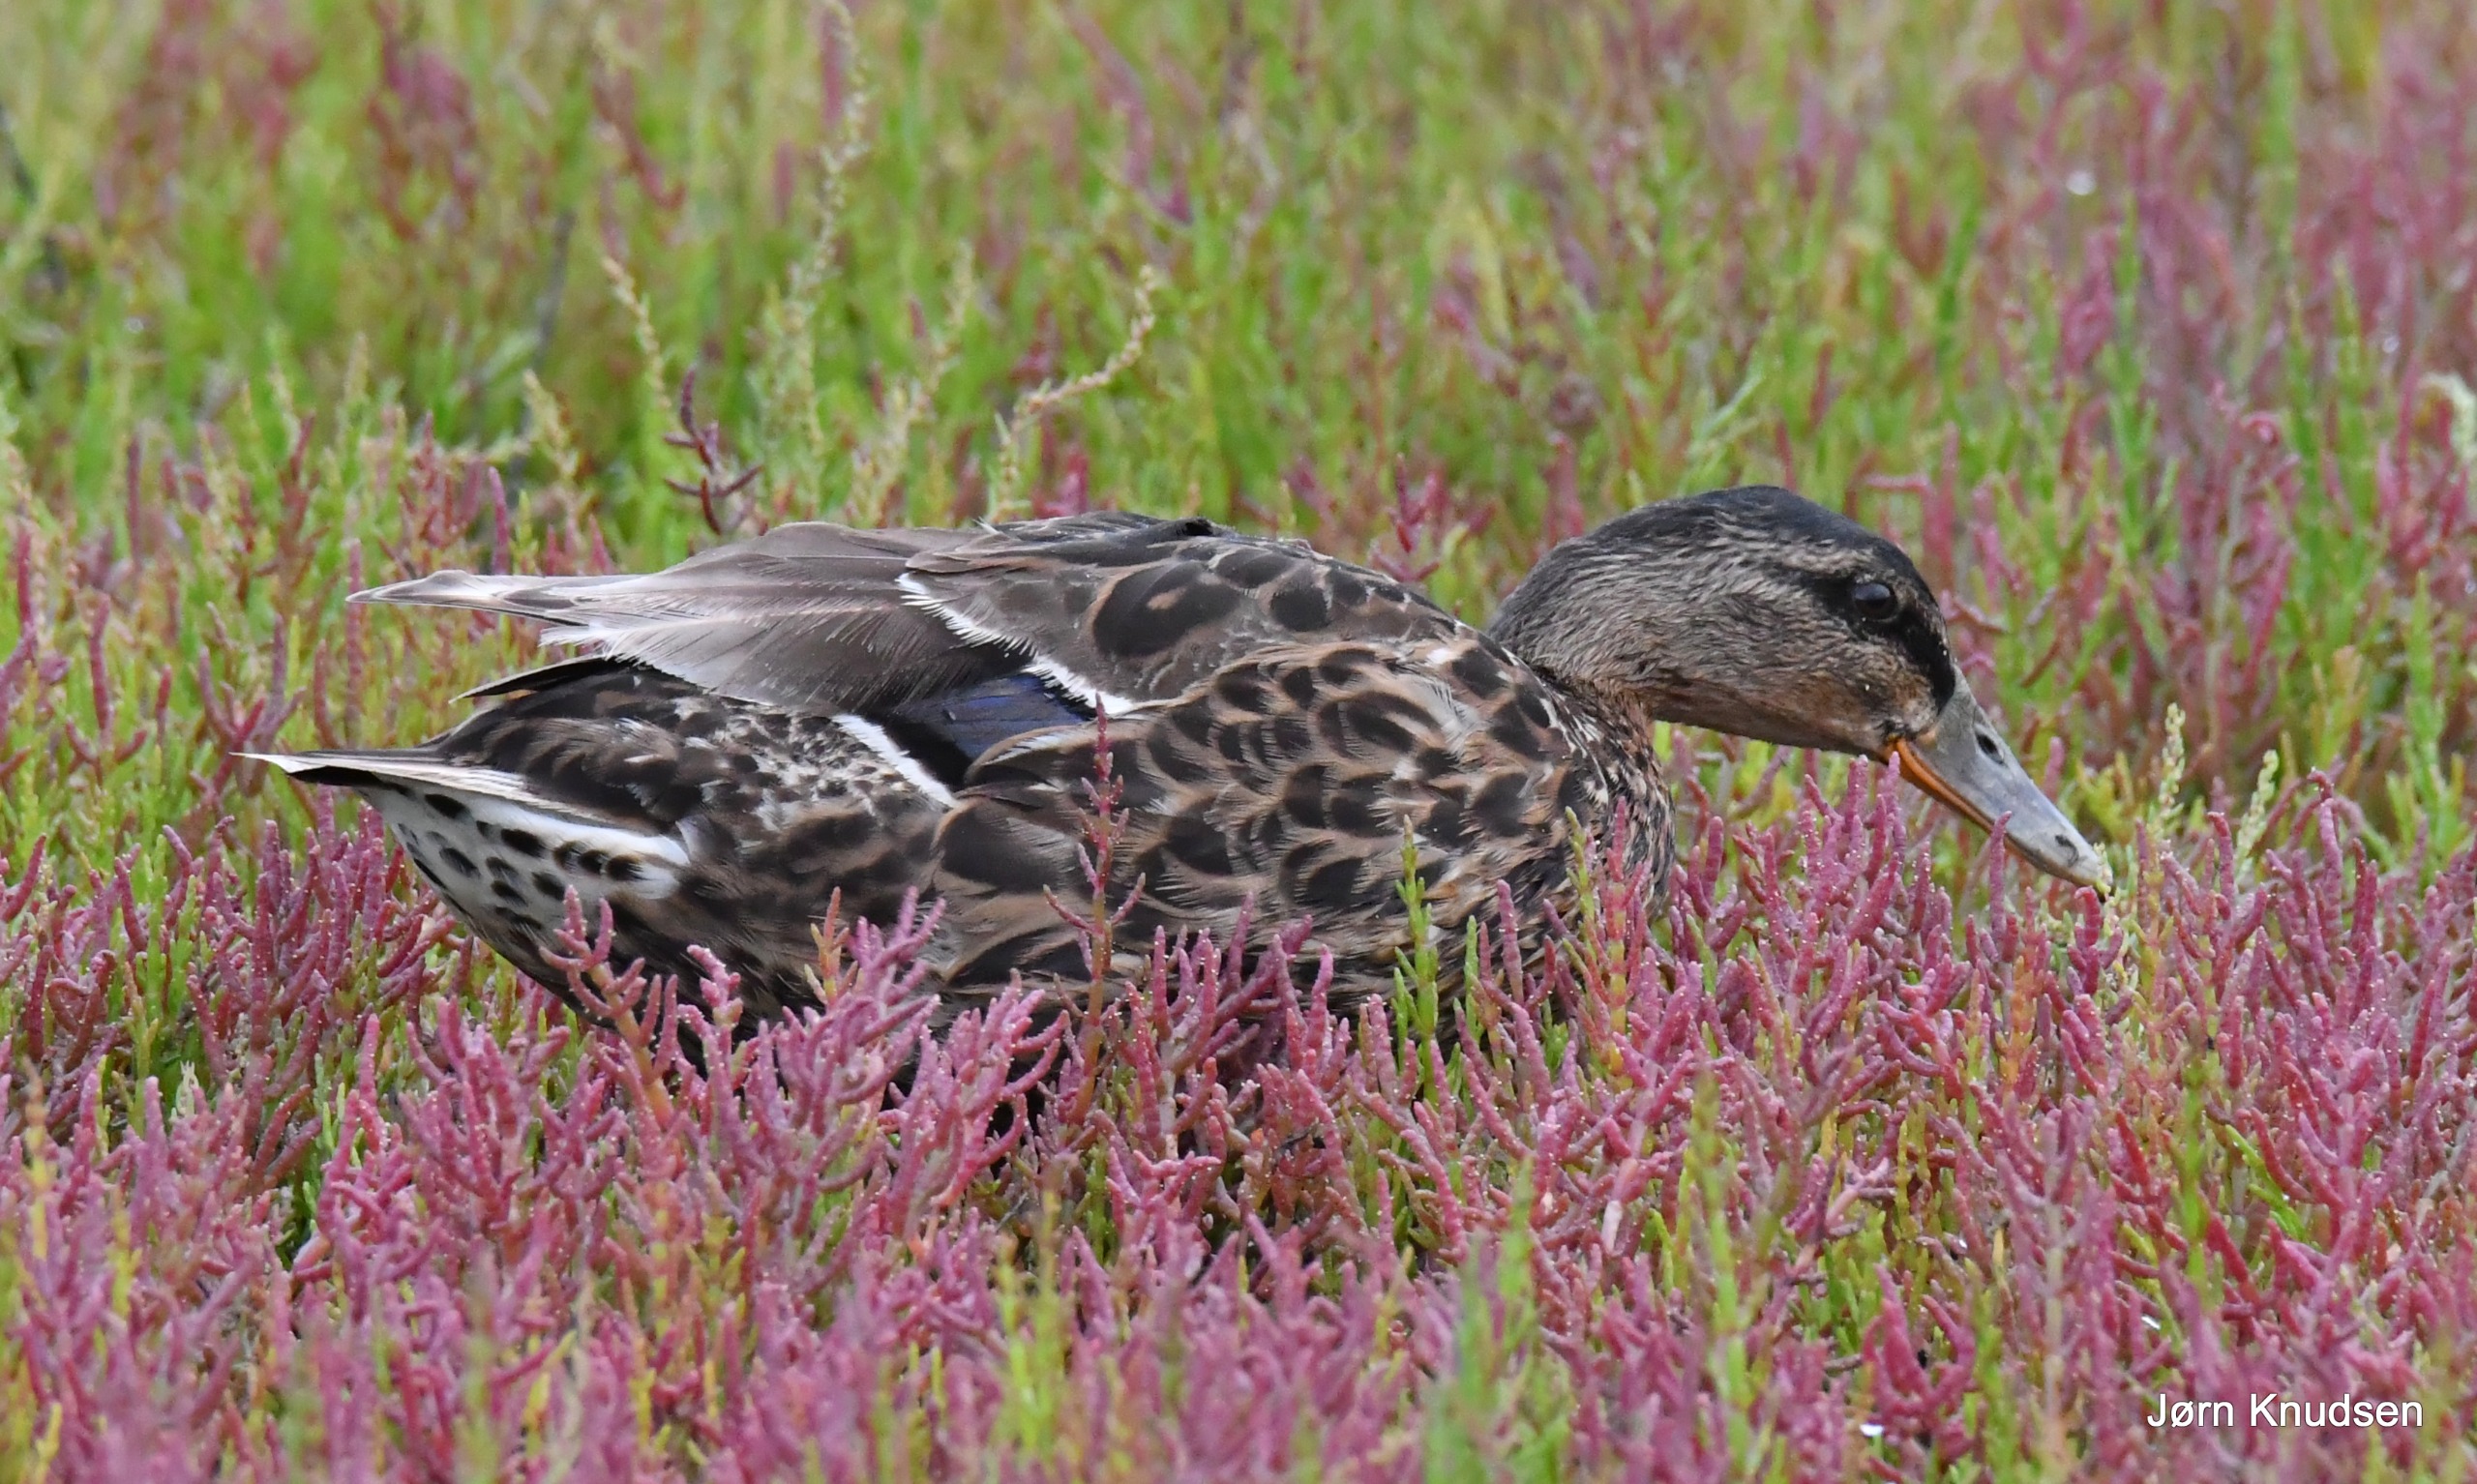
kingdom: Animalia
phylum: Chordata
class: Aves
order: Anseriformes
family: Anatidae
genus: Anas
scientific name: Anas platyrhynchos
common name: Gråand
